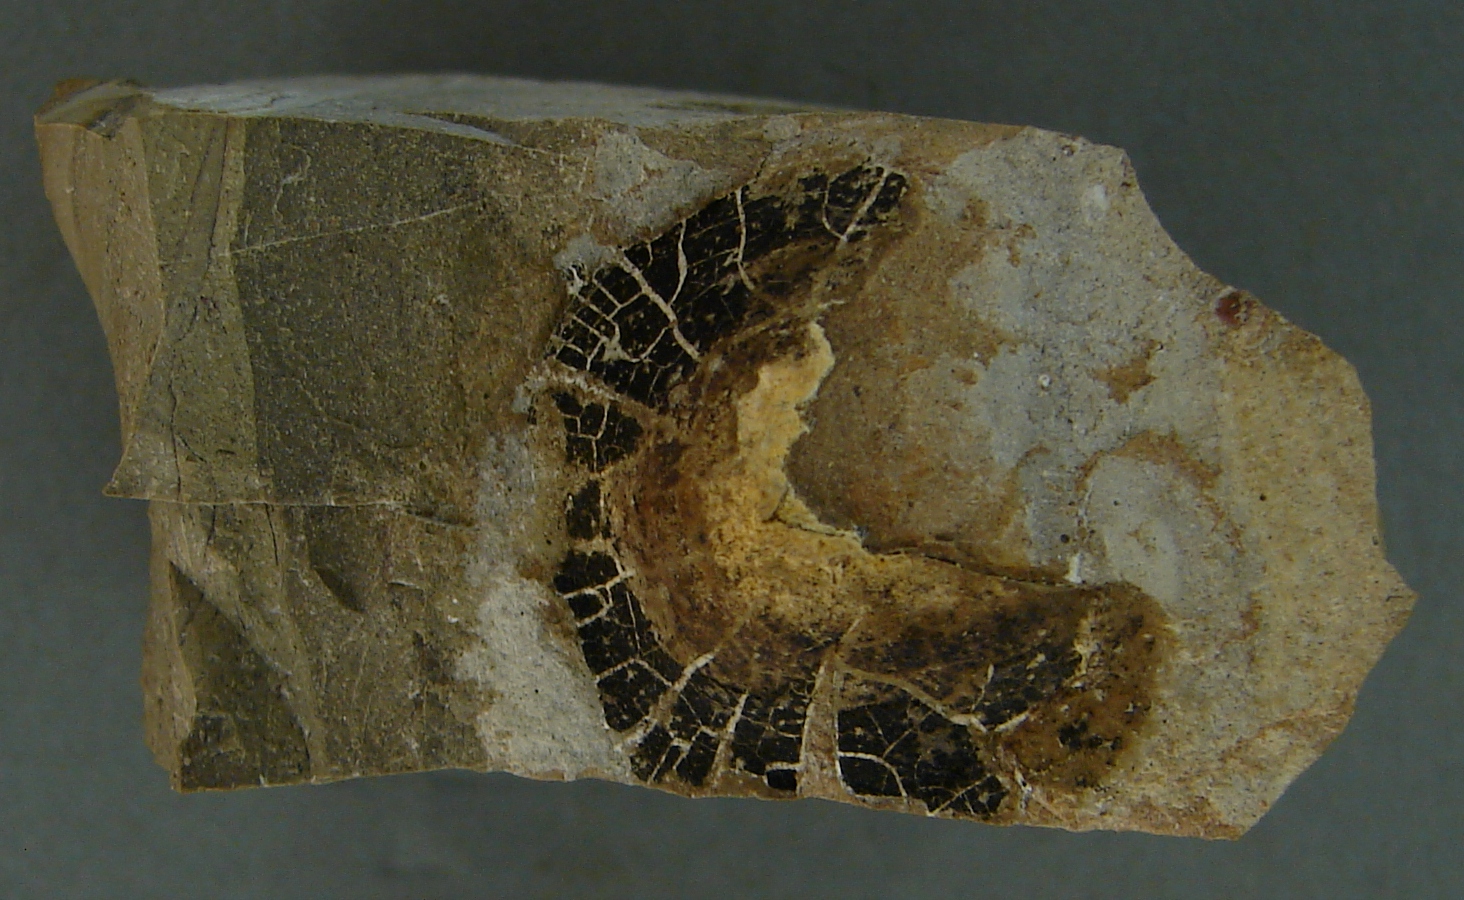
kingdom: Animalia
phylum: Mollusca
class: Cephalopoda
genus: Anaptychus
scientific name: Anaptychus
